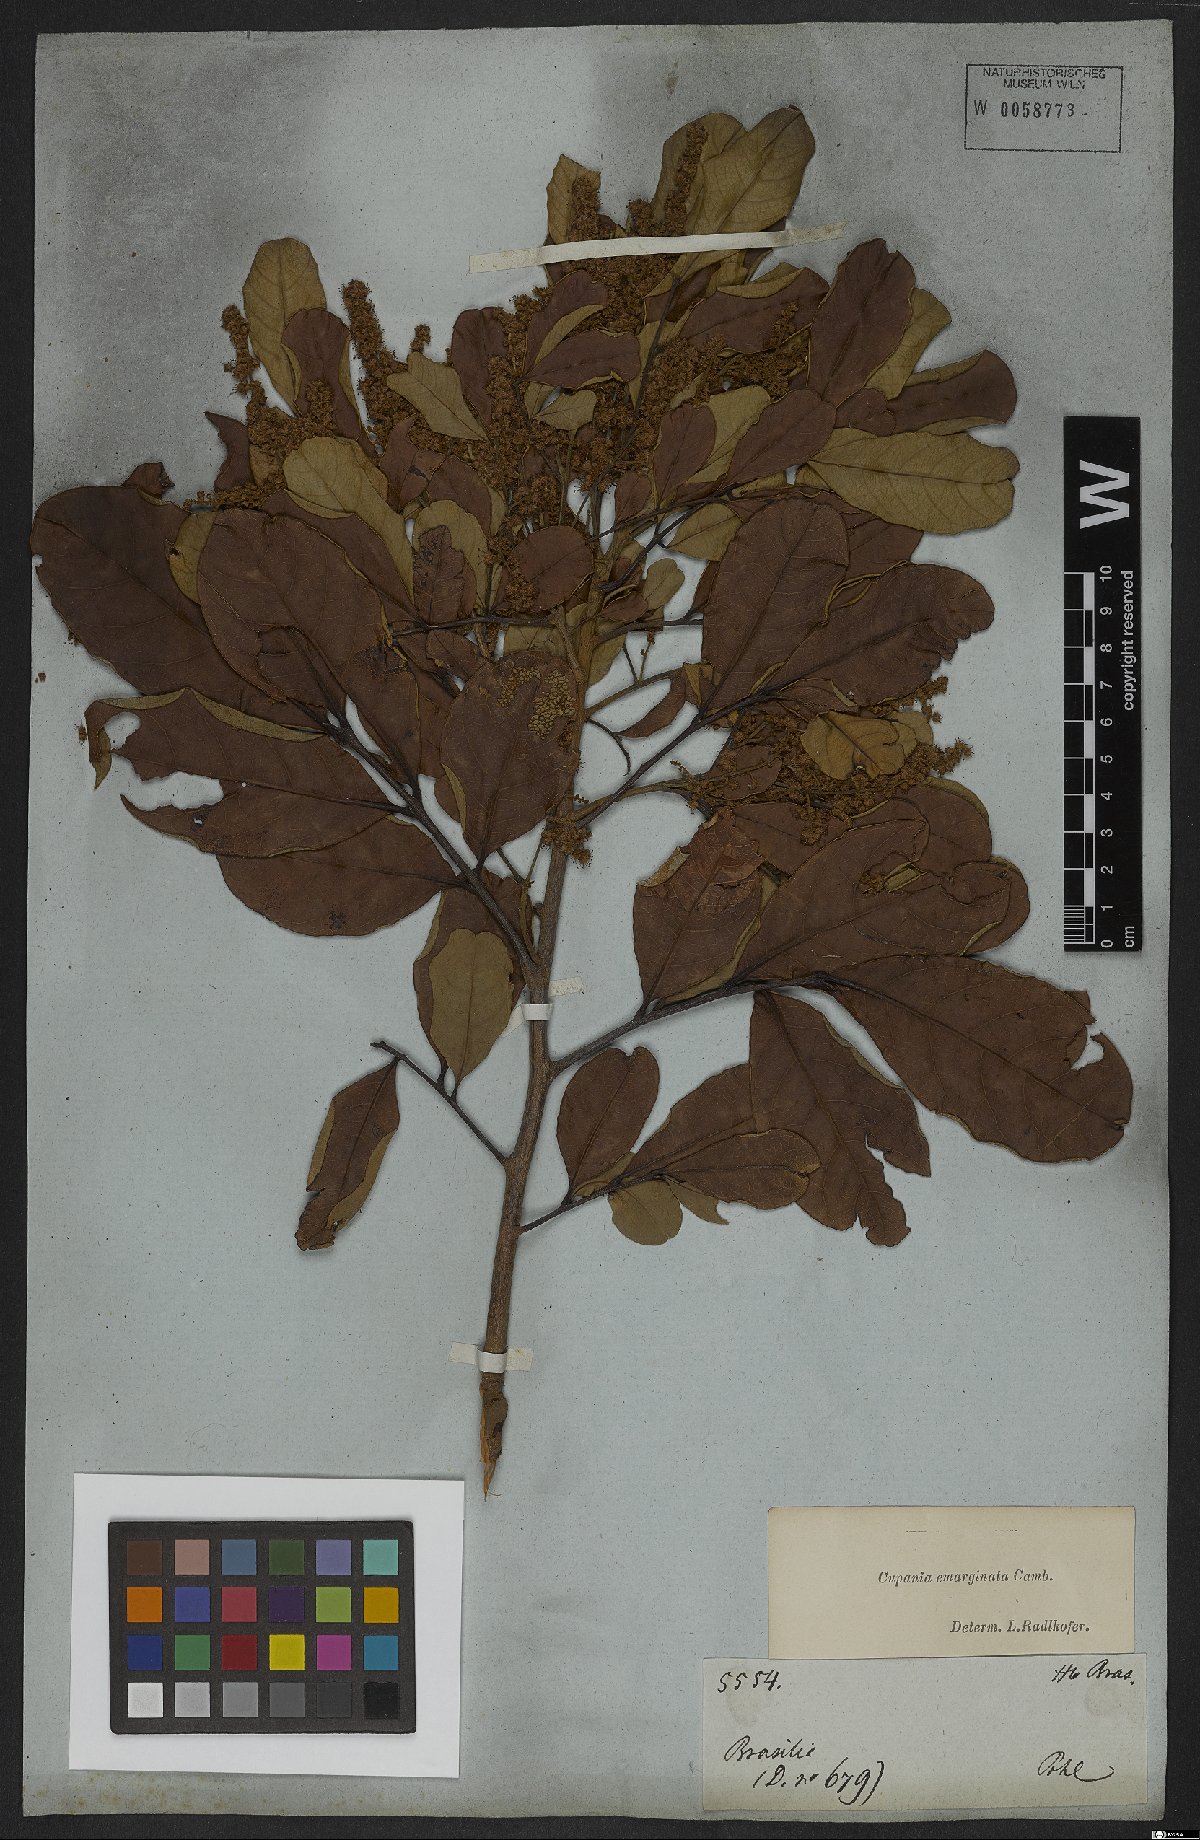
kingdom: Plantae
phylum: Tracheophyta
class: Magnoliopsida
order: Sapindales
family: Sapindaceae
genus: Cupania
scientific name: Cupania emarginata
